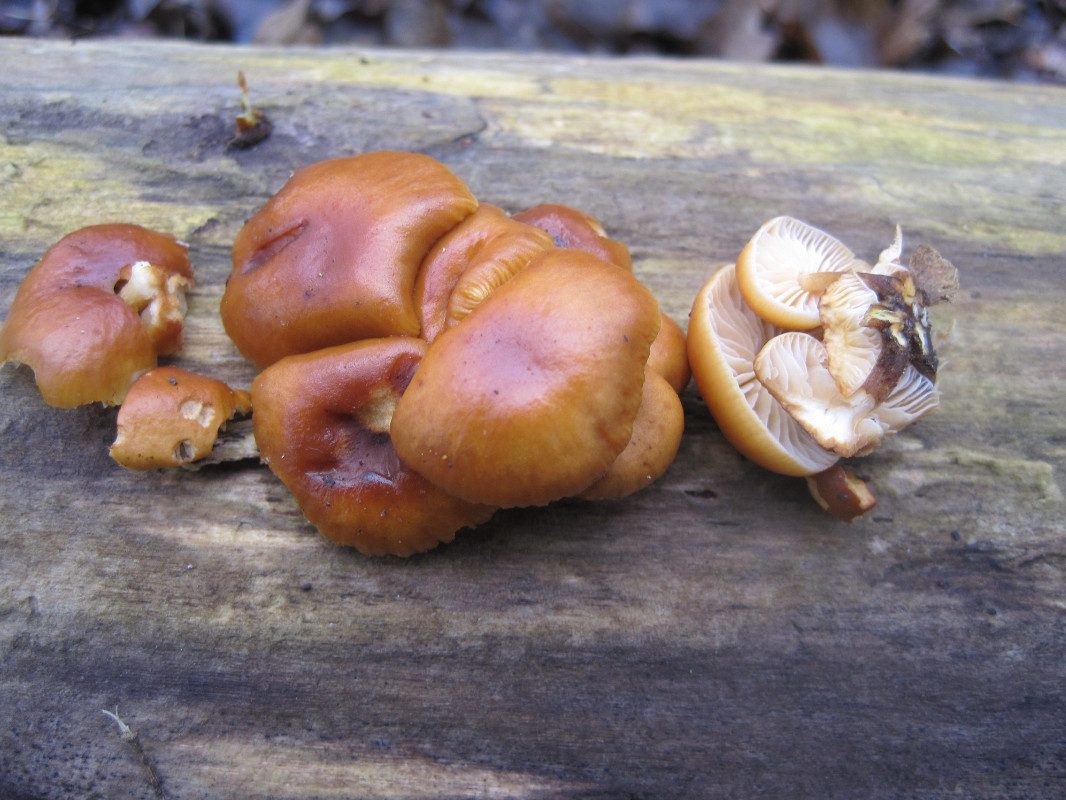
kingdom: Fungi
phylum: Basidiomycota
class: Agaricomycetes
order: Agaricales
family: Physalacriaceae
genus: Flammulina
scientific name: Flammulina velutipes
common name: gul fløjlsfod
